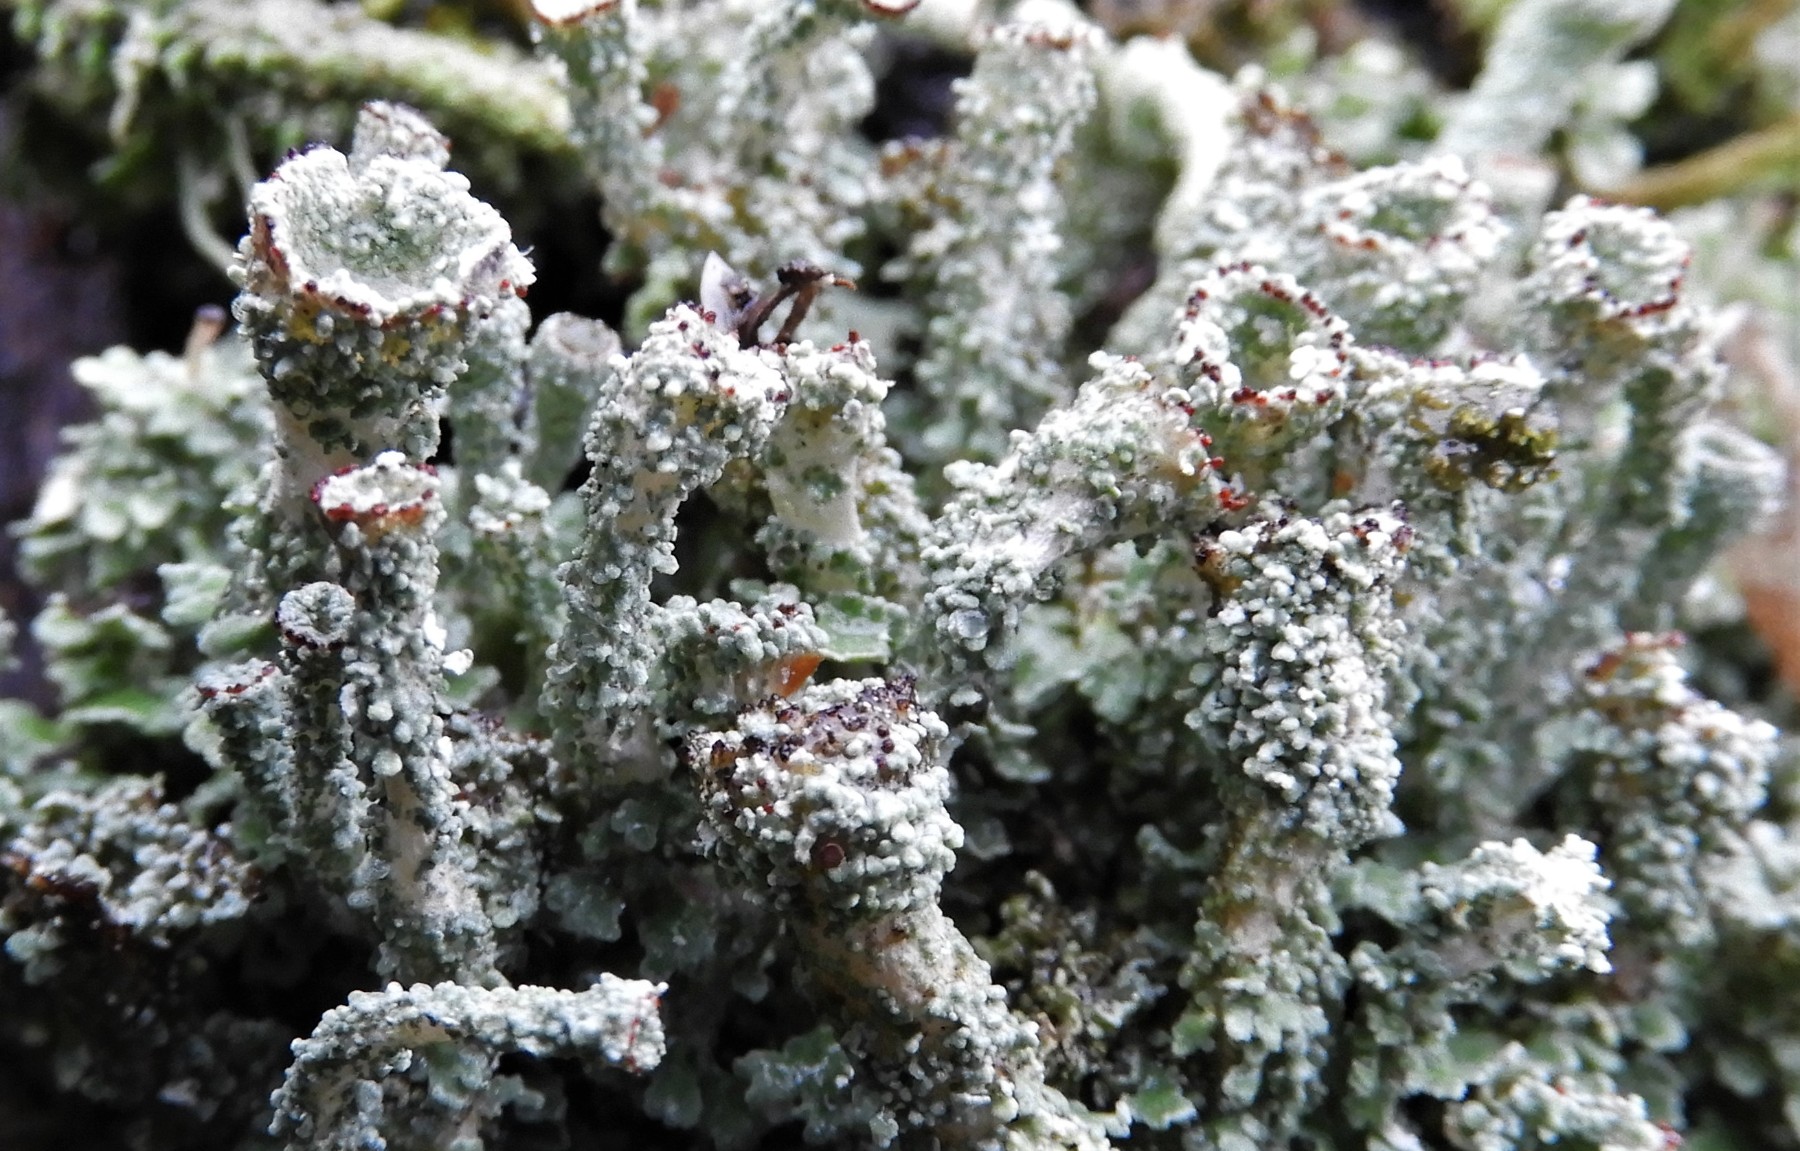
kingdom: Fungi
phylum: Ascomycota
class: Lecanoromycetes
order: Lecanorales
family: Cladoniaceae
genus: Cladonia
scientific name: Cladonia borealis
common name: nordlig bægerlav
